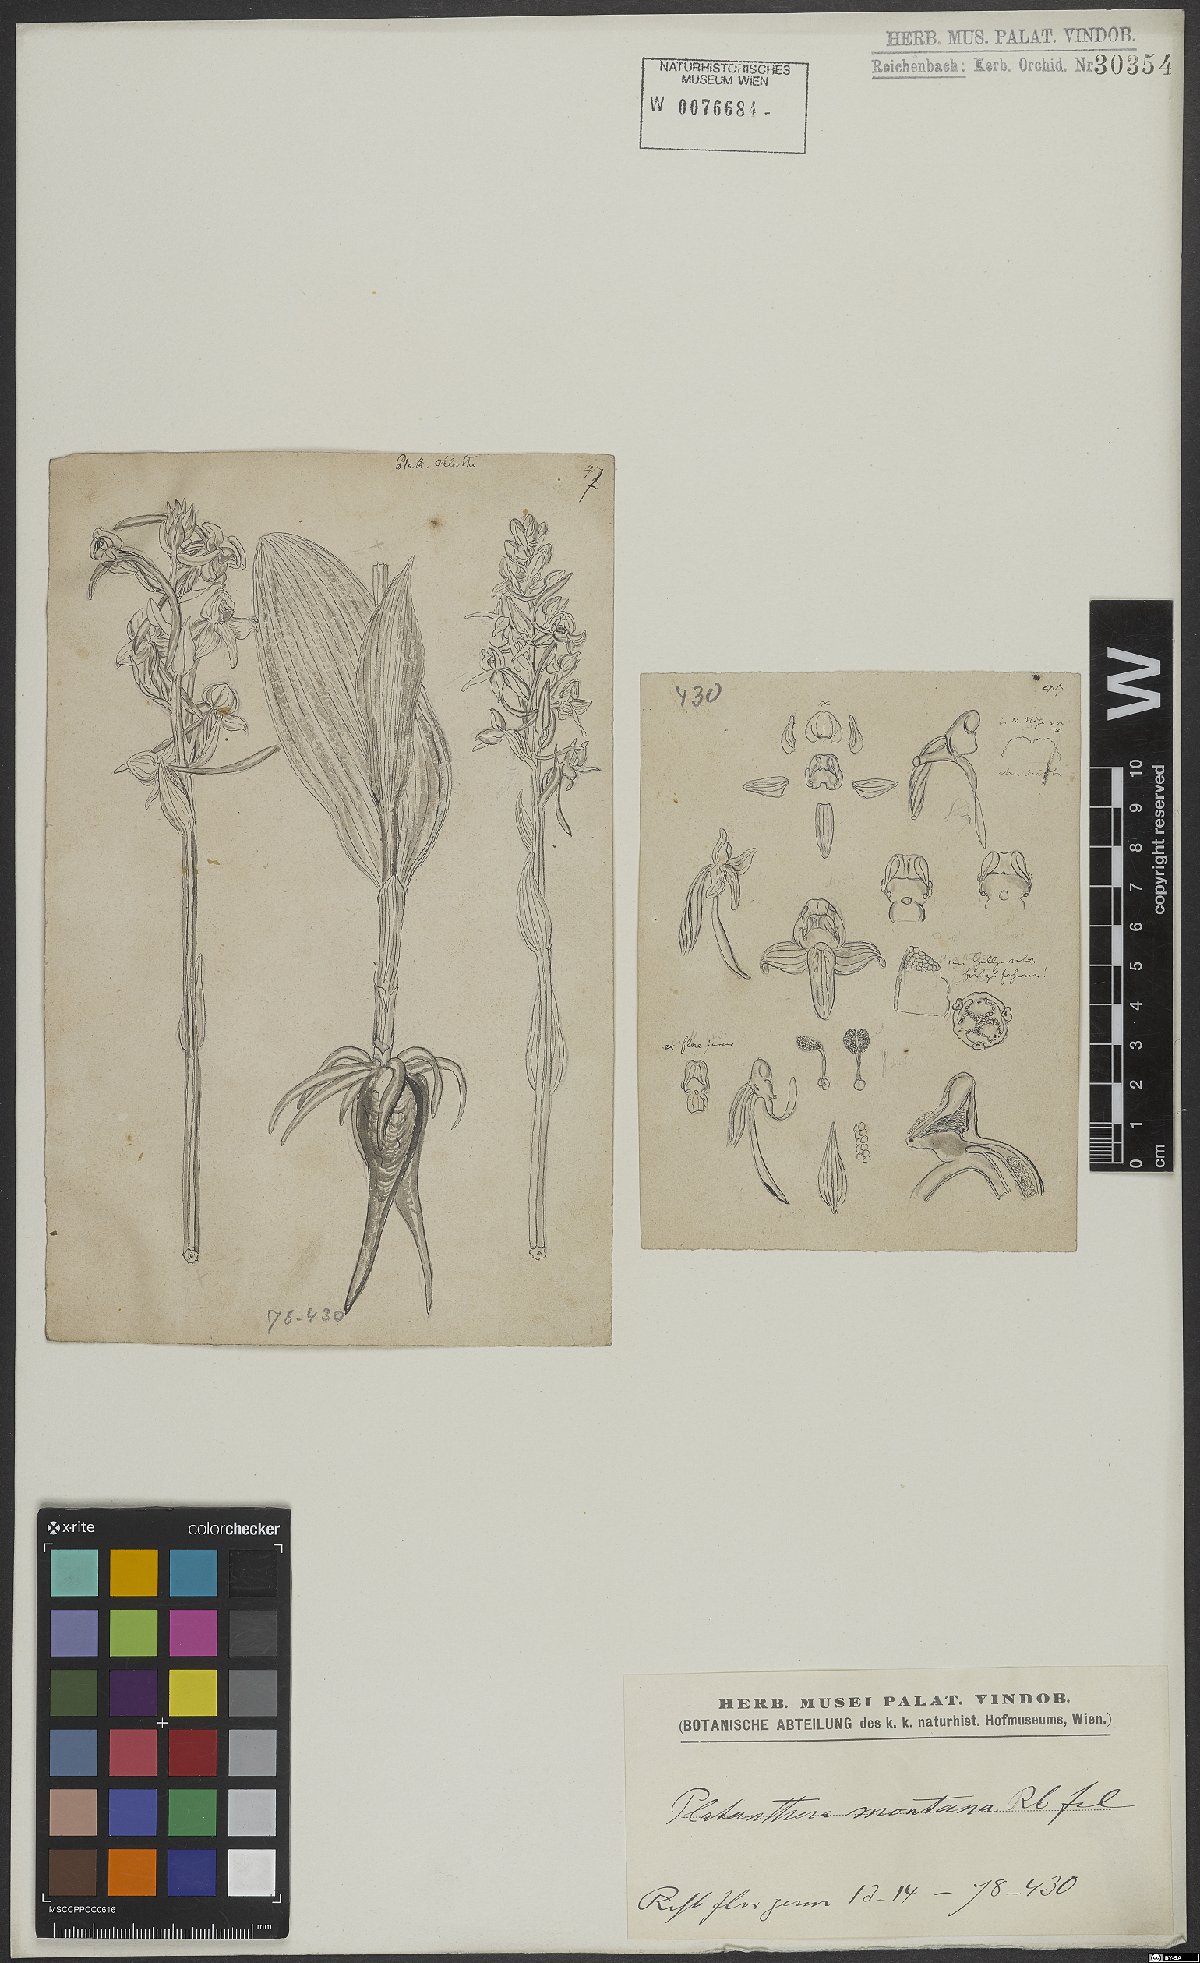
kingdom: Plantae
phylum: Tracheophyta
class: Liliopsida
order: Asparagales
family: Orchidaceae
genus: Platanthera
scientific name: Platanthera chlorantha
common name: Greater butterfly-orchid
